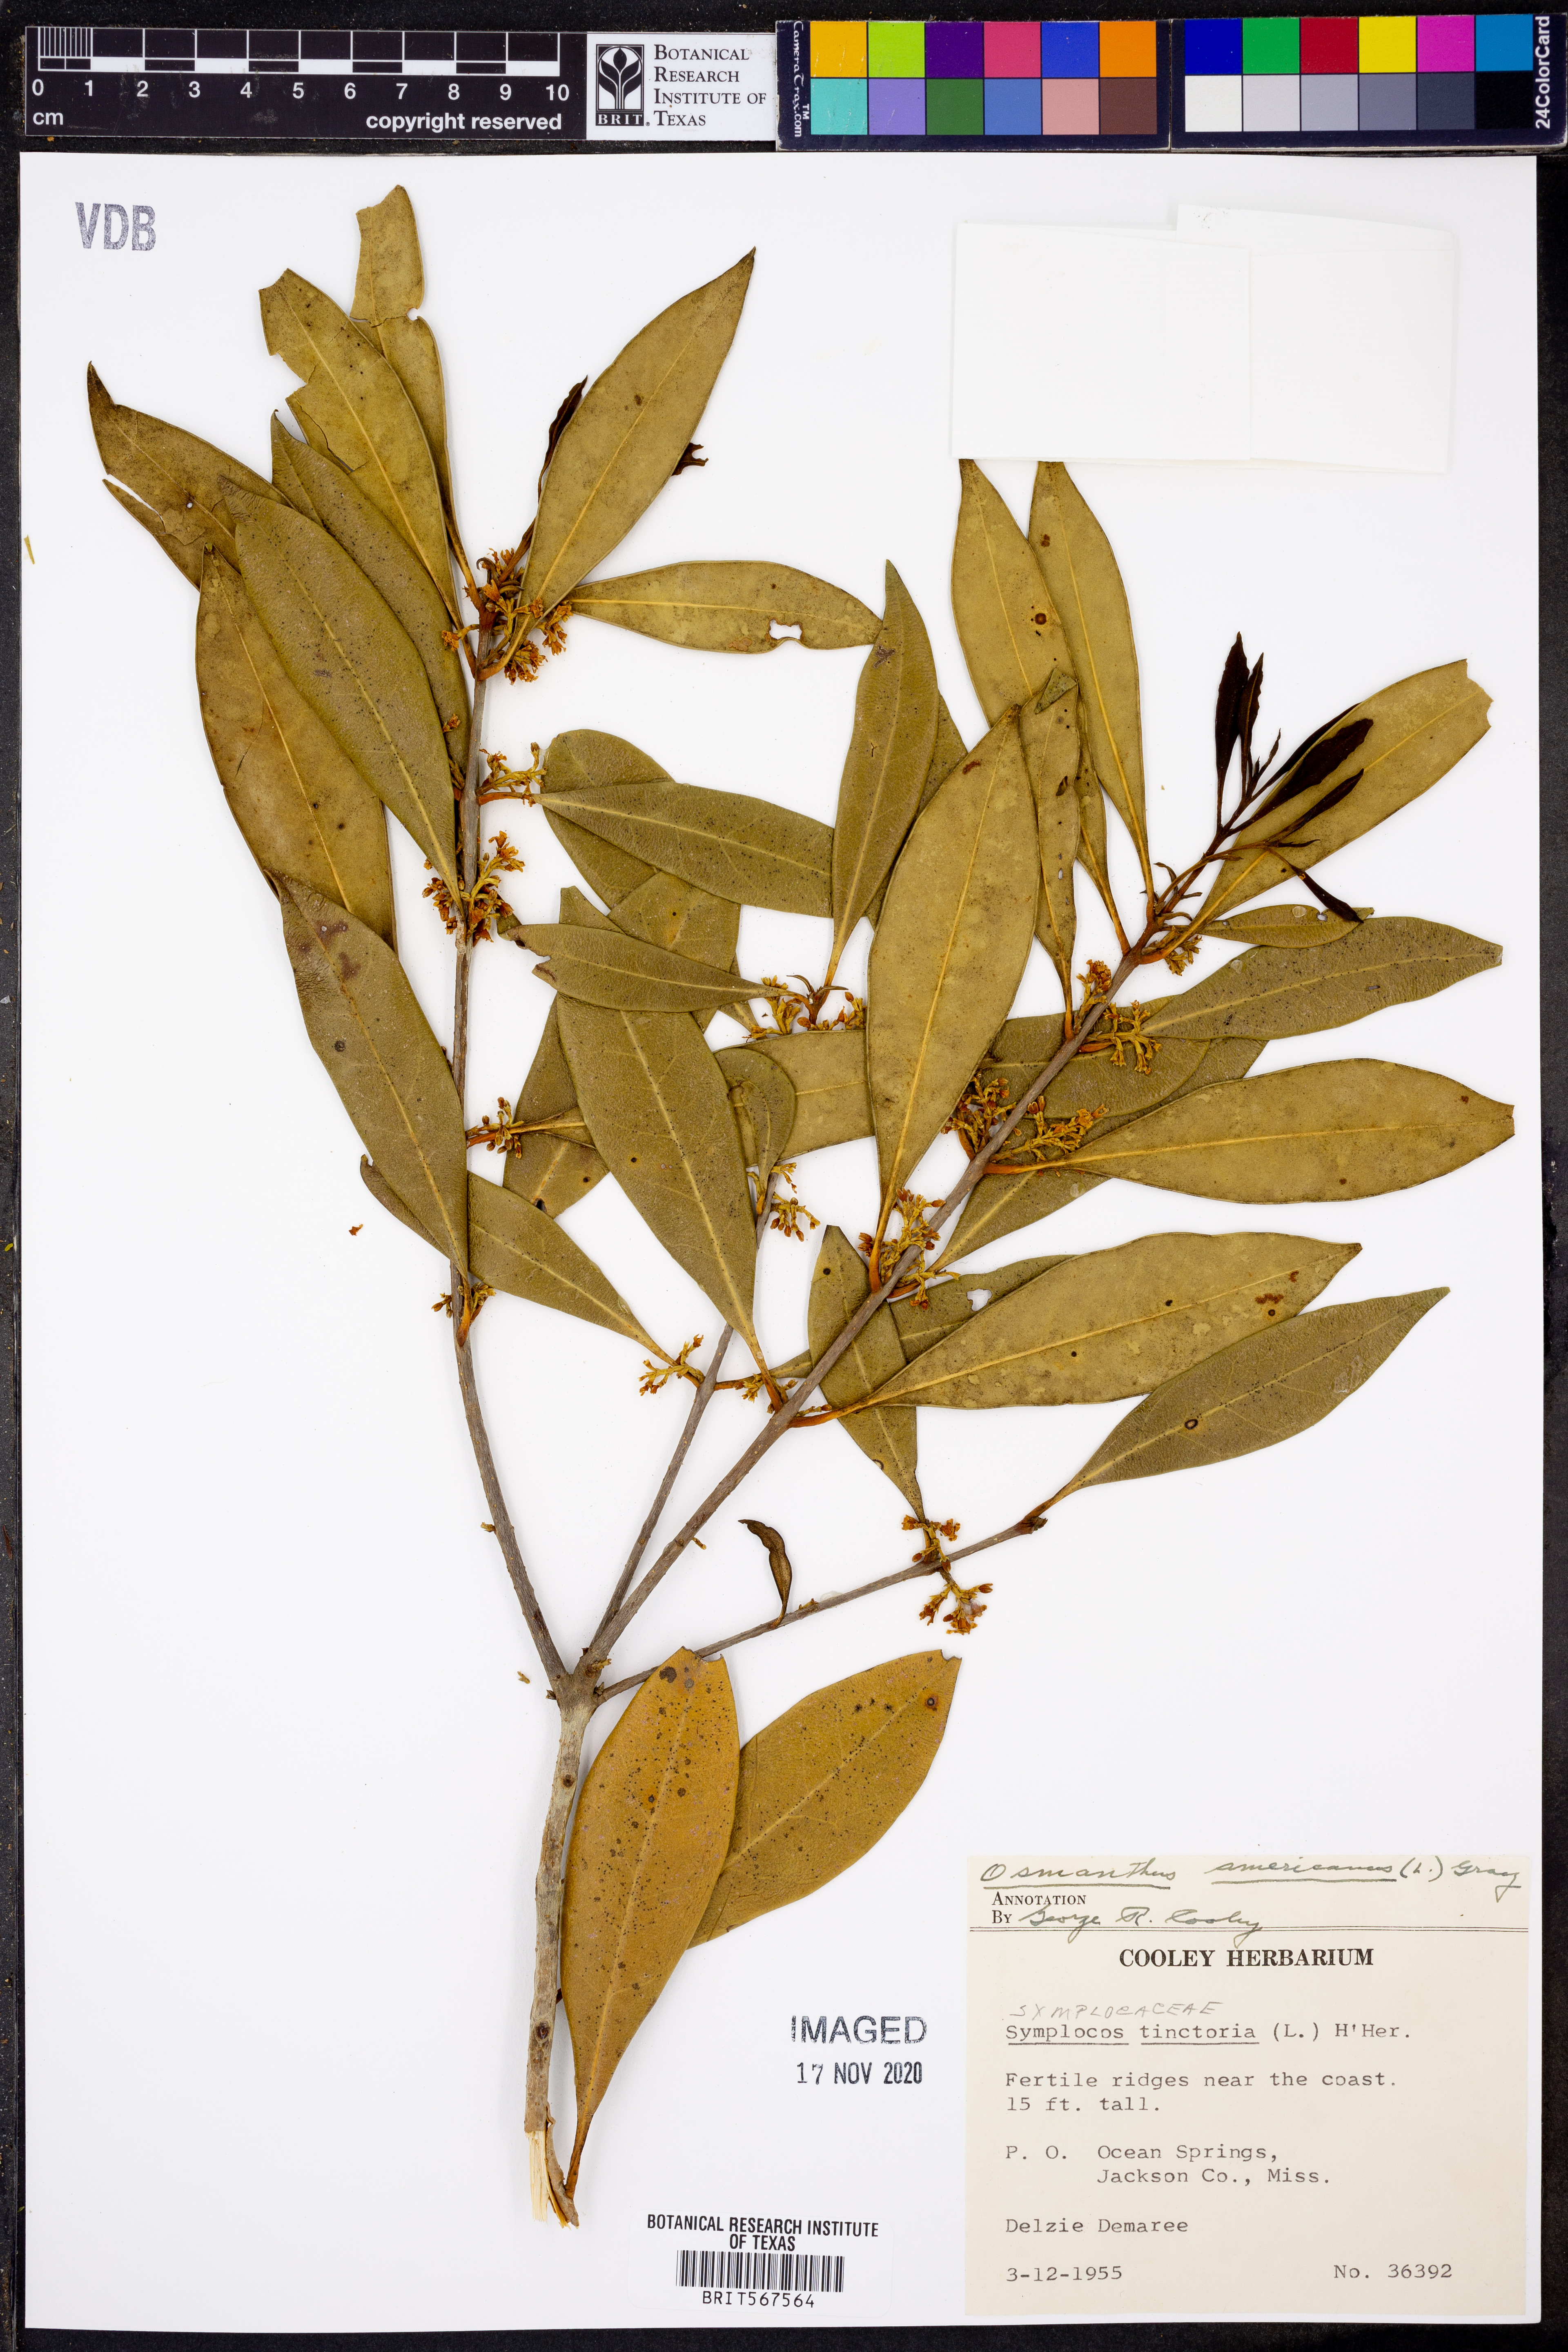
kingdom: Plantae
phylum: Tracheophyta
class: Magnoliopsida
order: Lamiales
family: Oleaceae
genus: Osmanthus
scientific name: Osmanthus americanus
